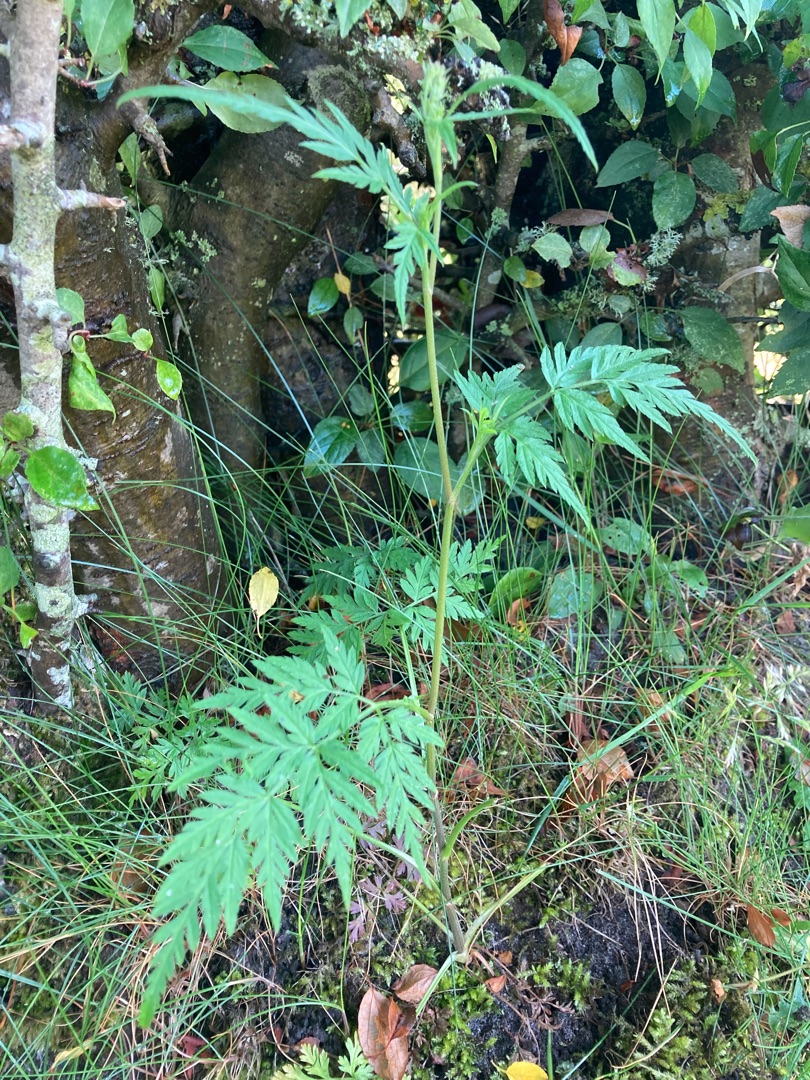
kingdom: Plantae
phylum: Tracheophyta
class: Magnoliopsida
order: Apiales
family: Apiaceae
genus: Torilis
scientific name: Torilis japonica
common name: Hvas randfrø
